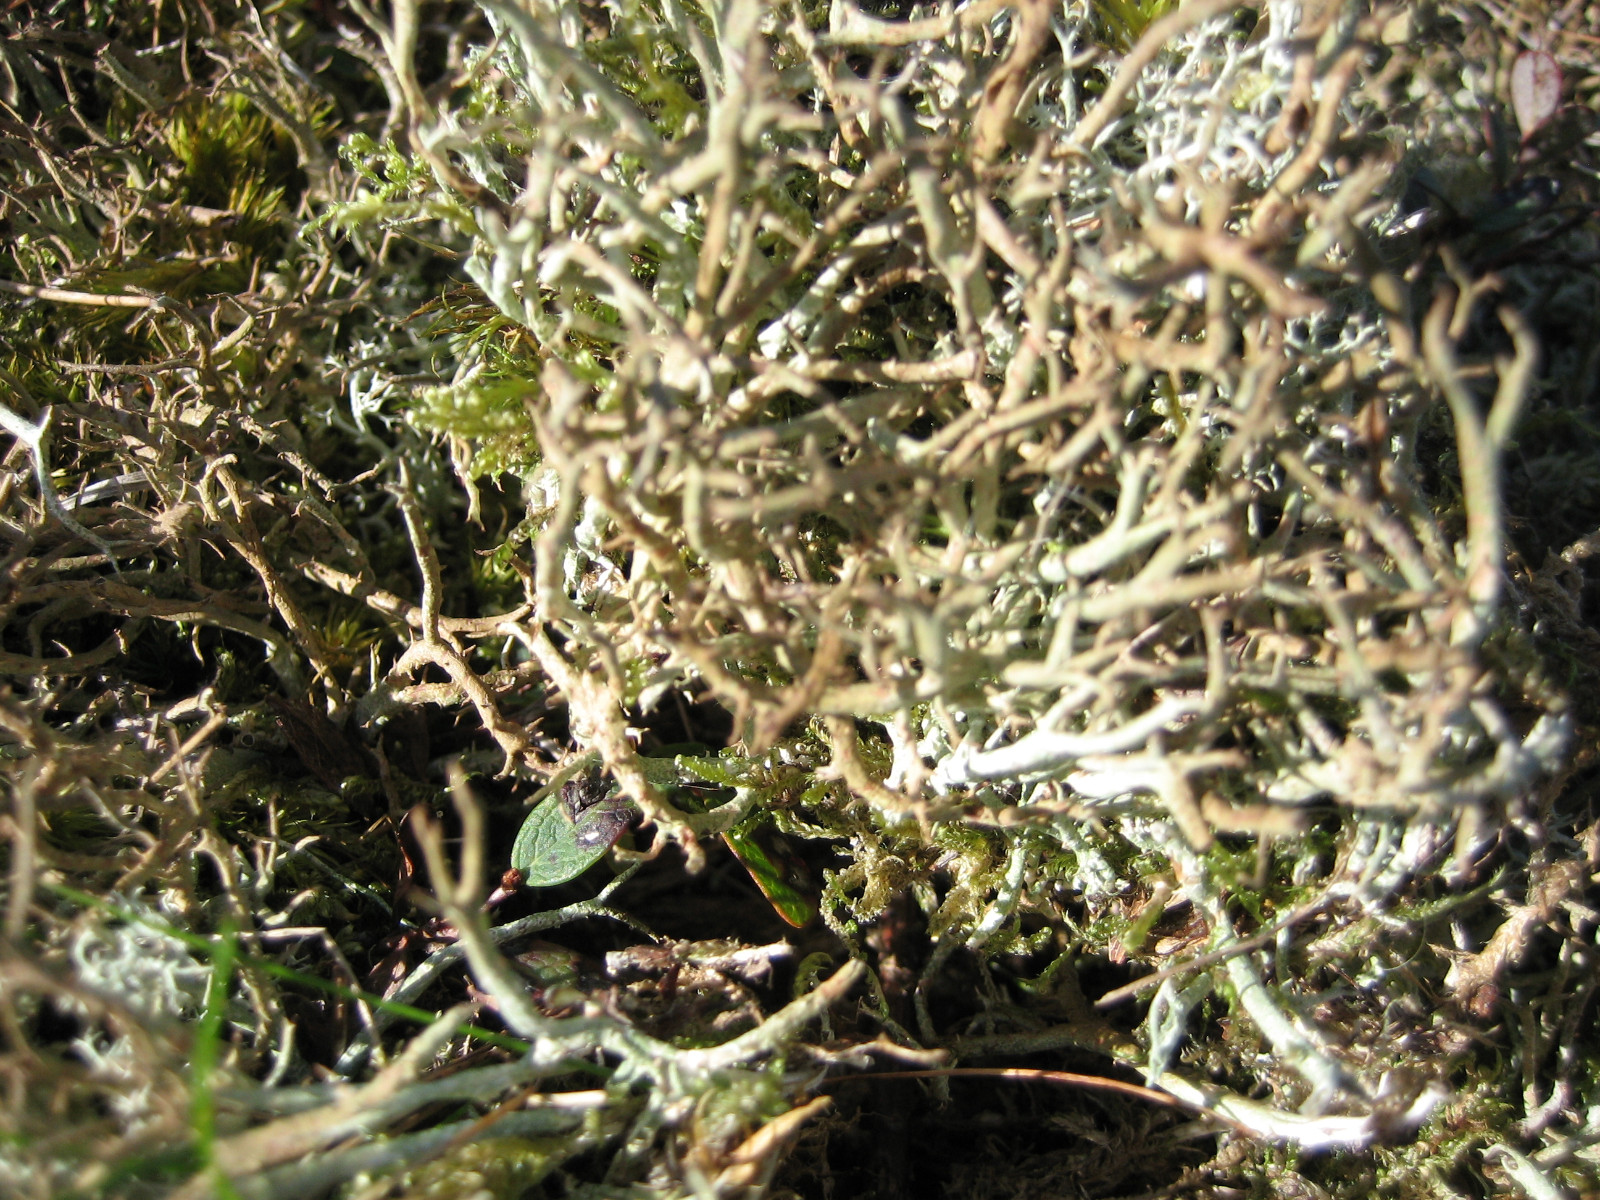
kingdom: Fungi
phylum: Ascomycota
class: Lecanoromycetes
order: Lecanorales
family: Cladoniaceae
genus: Cladonia
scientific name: Cladonia furcata
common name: kløftet bægerlav
